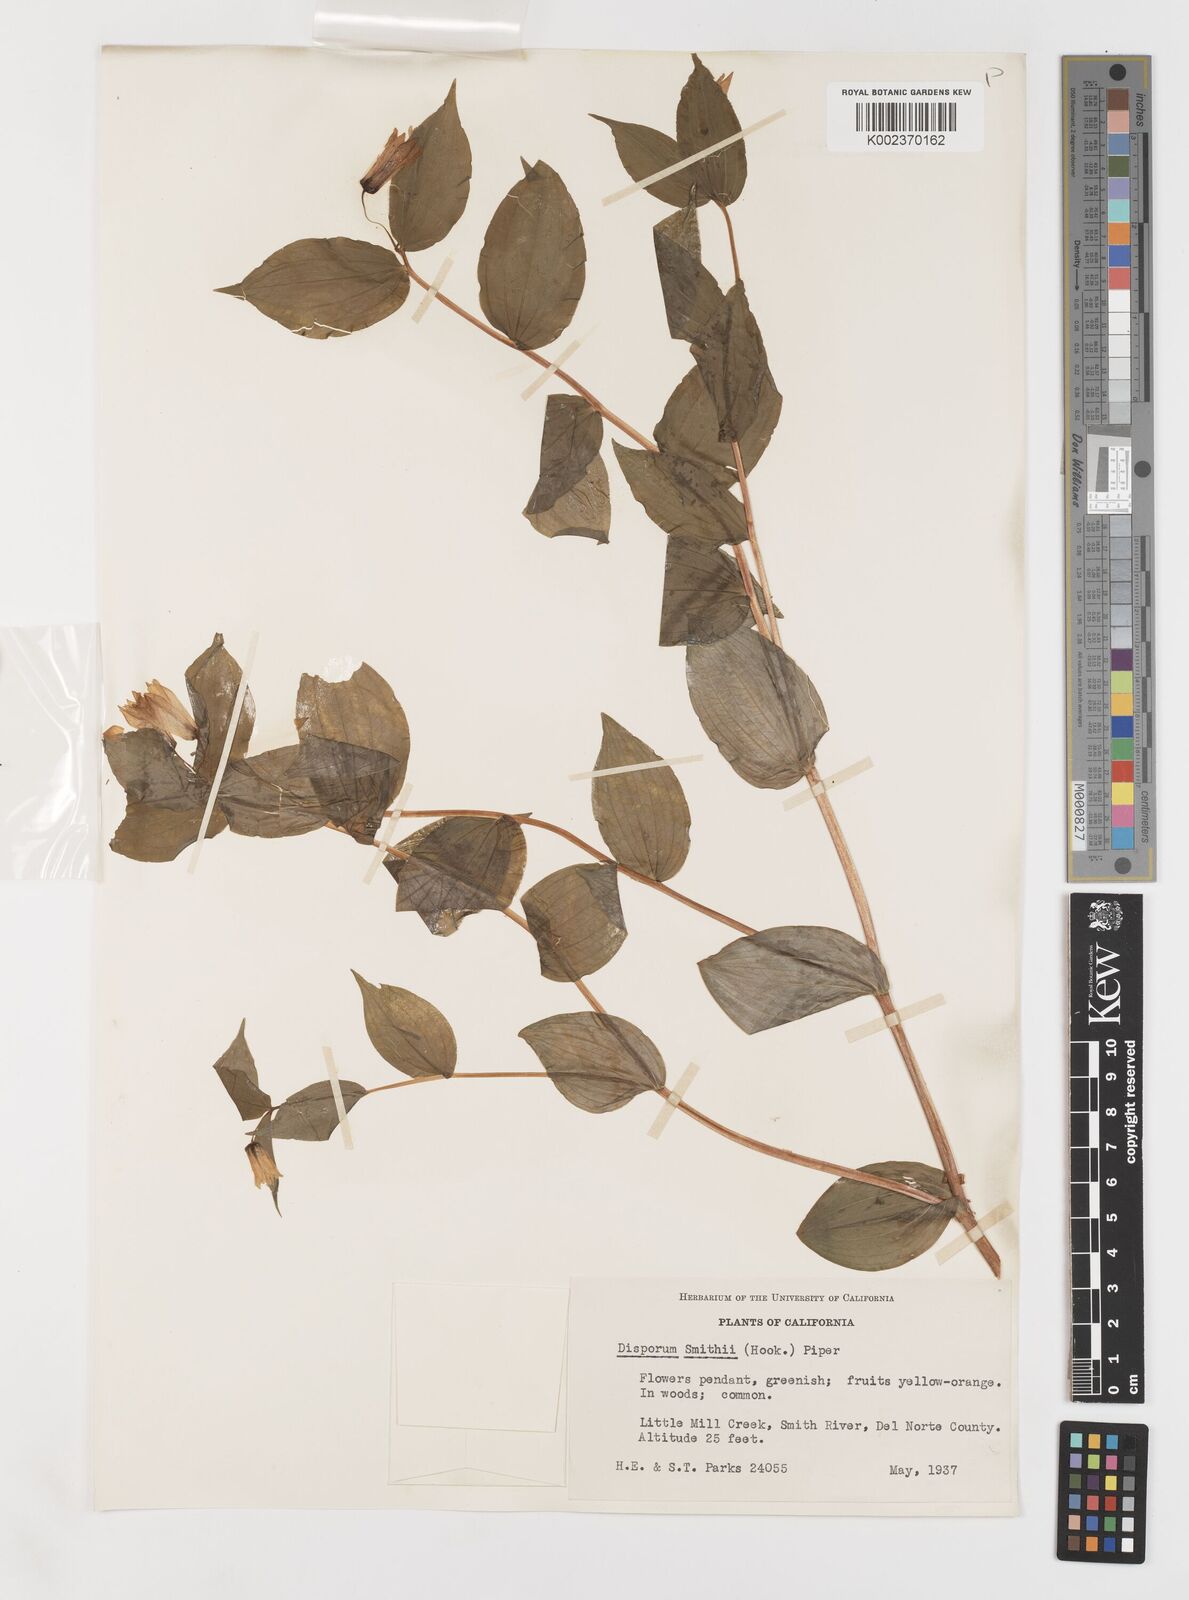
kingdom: Plantae
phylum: Tracheophyta
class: Liliopsida
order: Liliales
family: Liliaceae
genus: Prosartes
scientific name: Prosartes smithii
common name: Fairy-lantern
